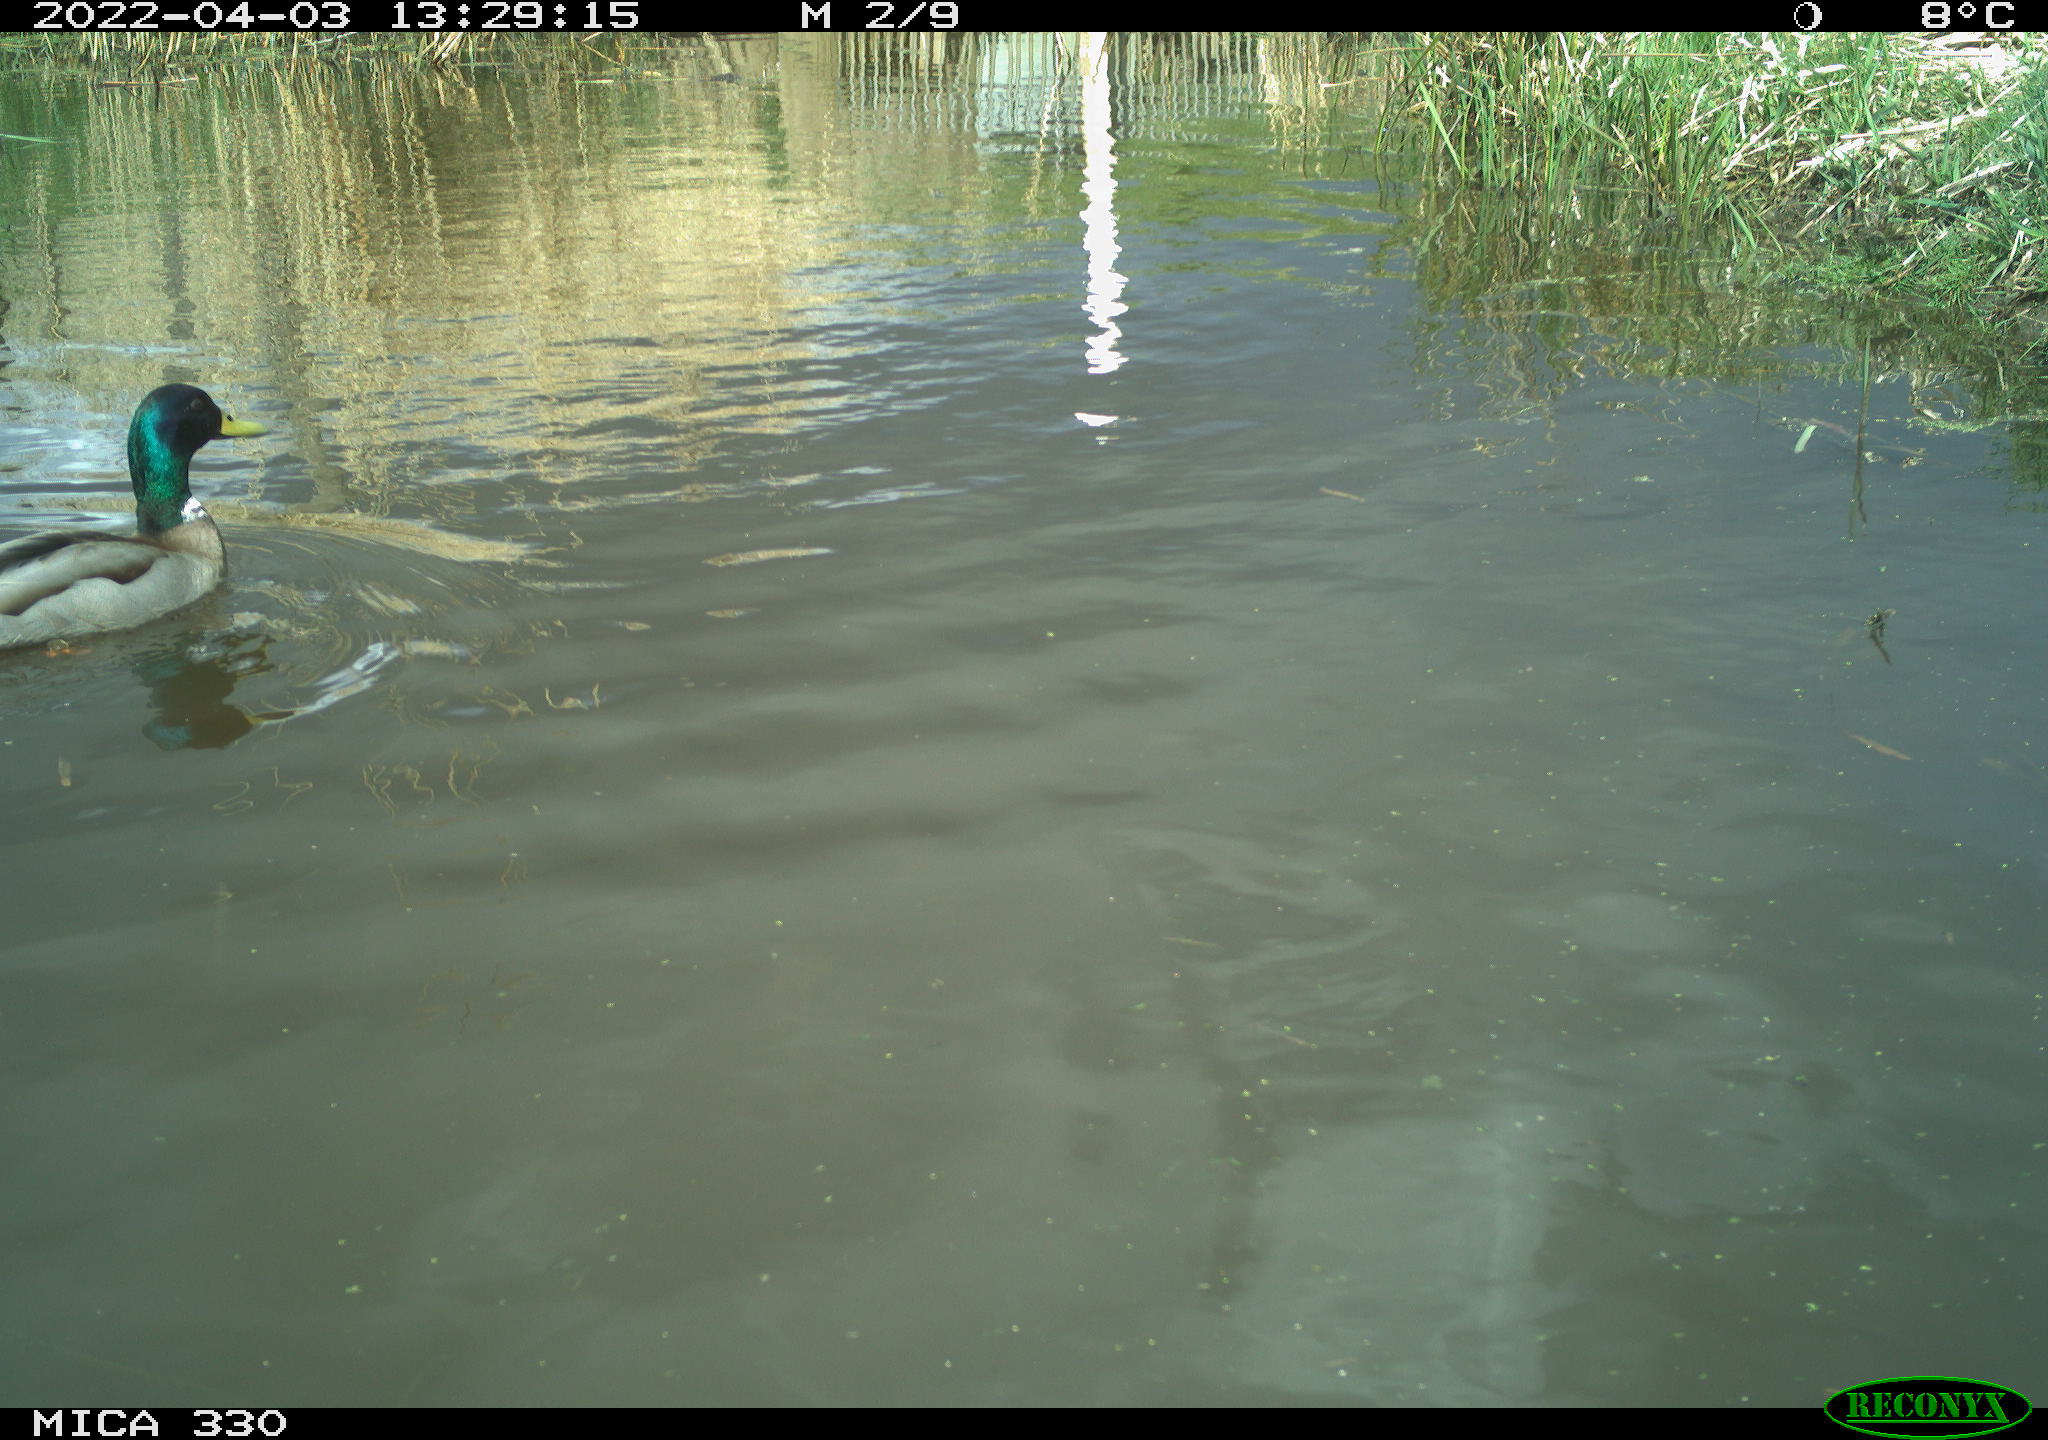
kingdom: Animalia
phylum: Chordata
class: Aves
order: Anseriformes
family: Anatidae
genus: Anas
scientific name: Anas platyrhynchos
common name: Mallard
